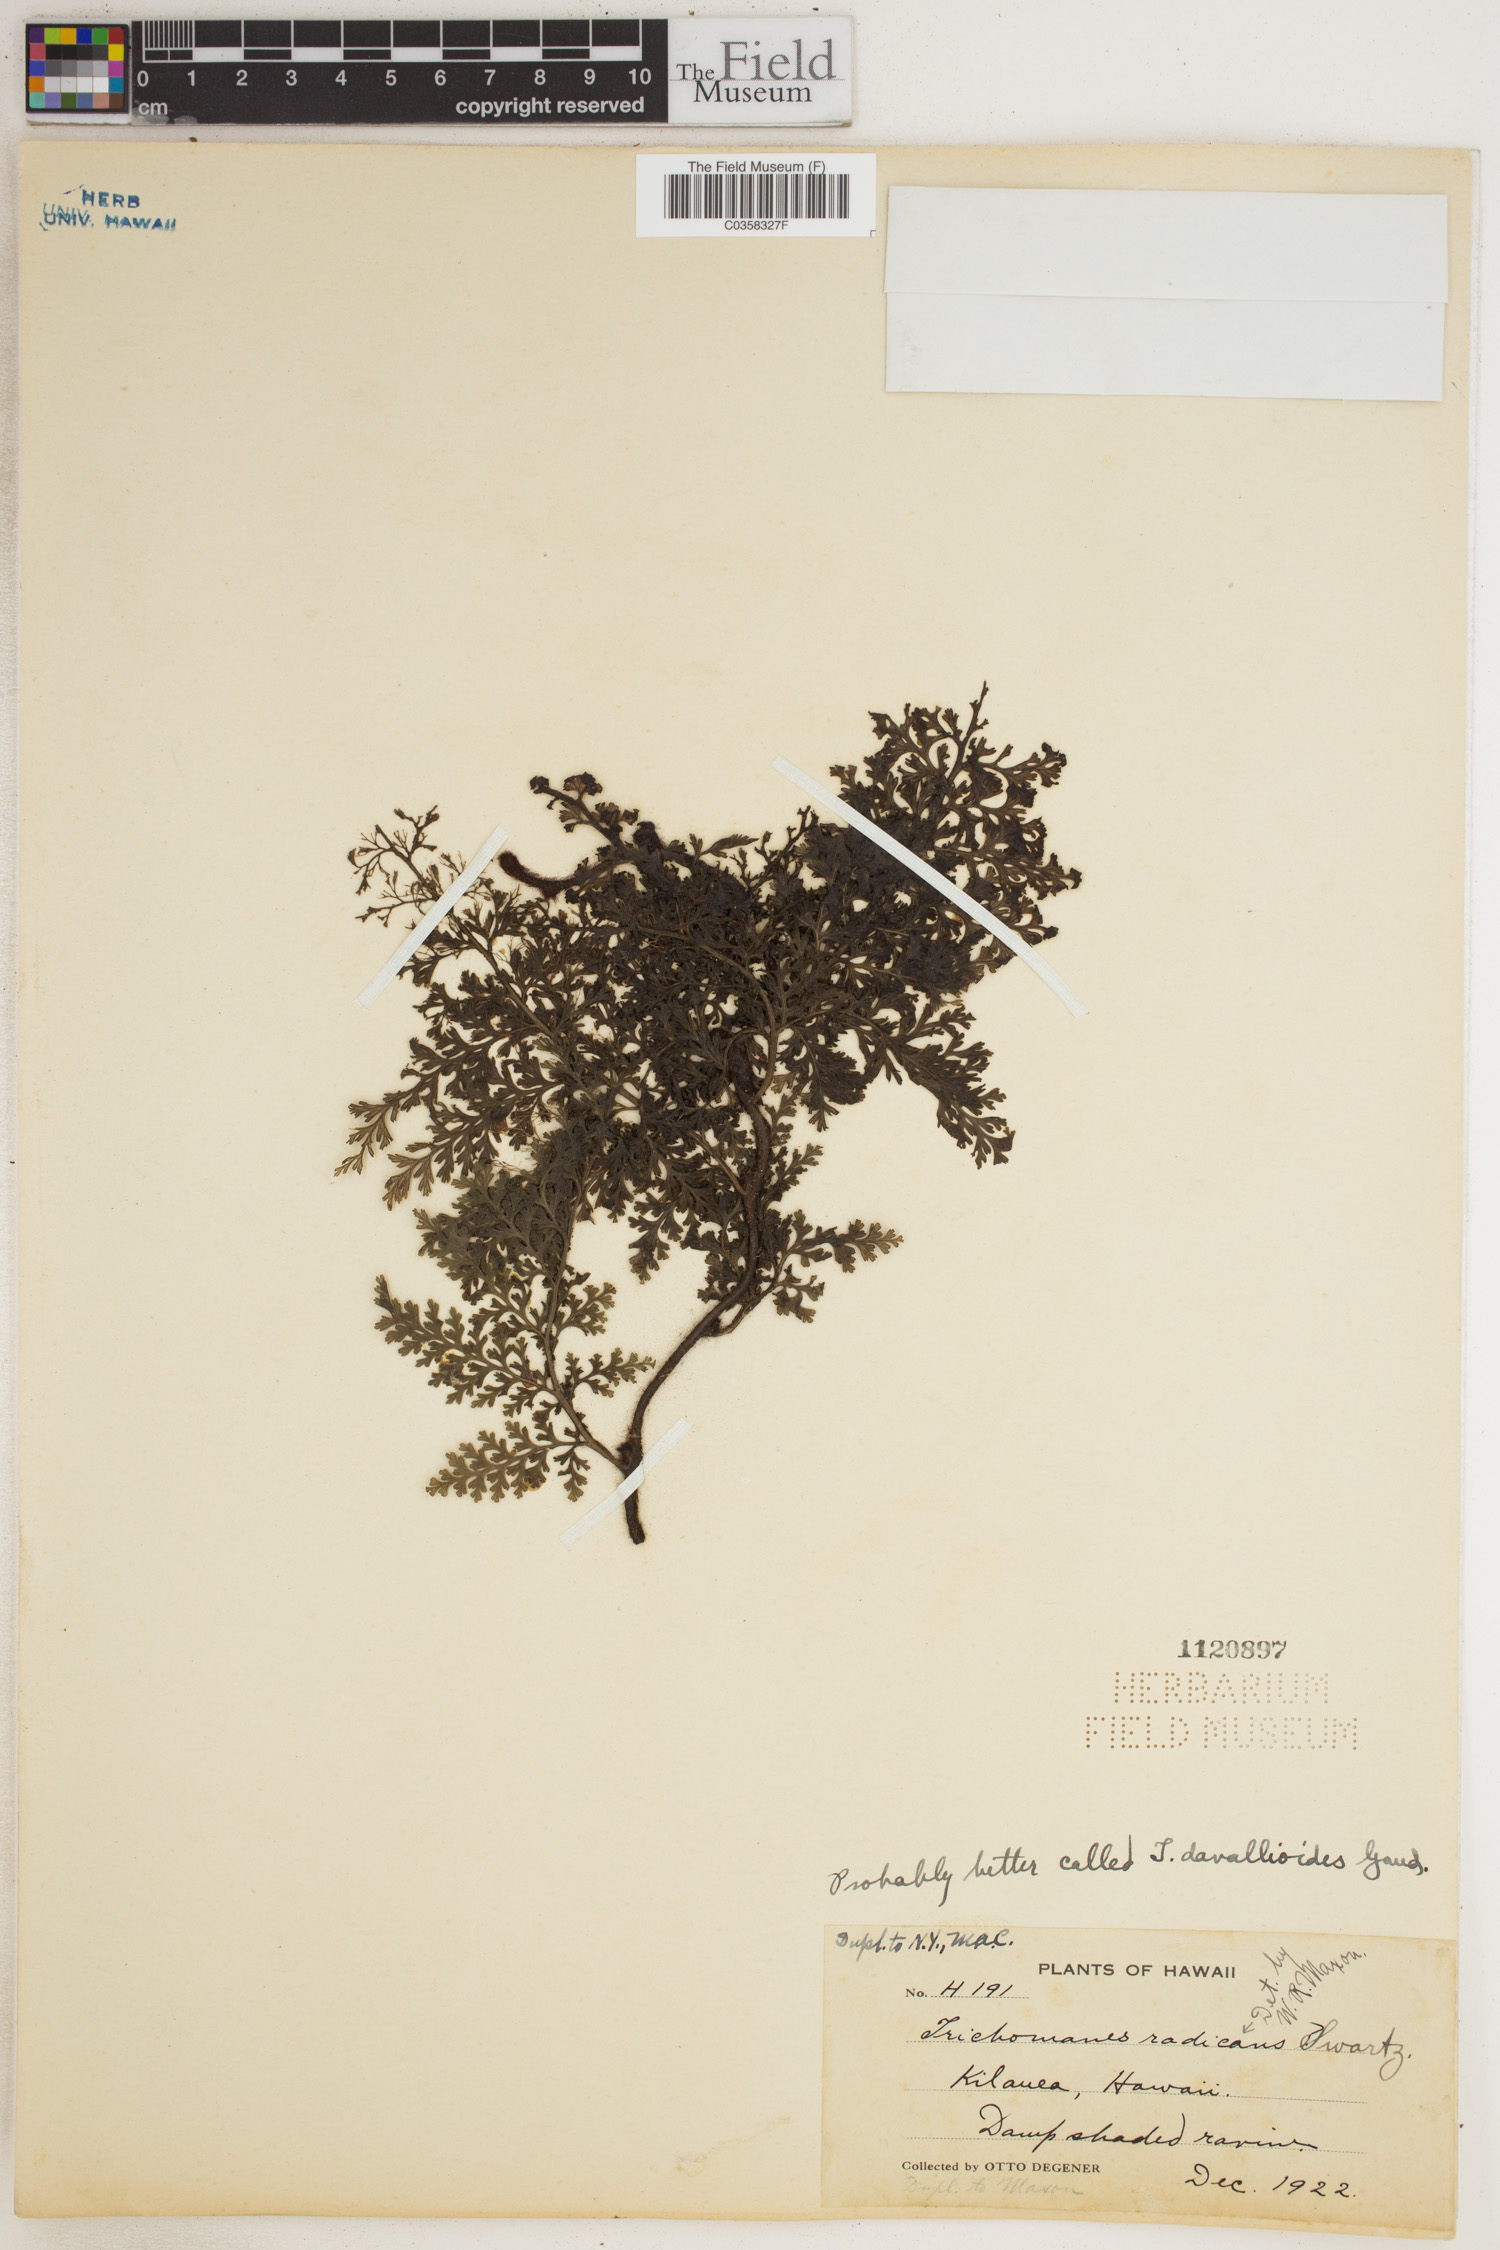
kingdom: Plantae
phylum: Tracheophyta
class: Polypodiopsida
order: Hymenophyllales
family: Hymenophyllaceae
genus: Vandenboschia
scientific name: Vandenboschia radicans
